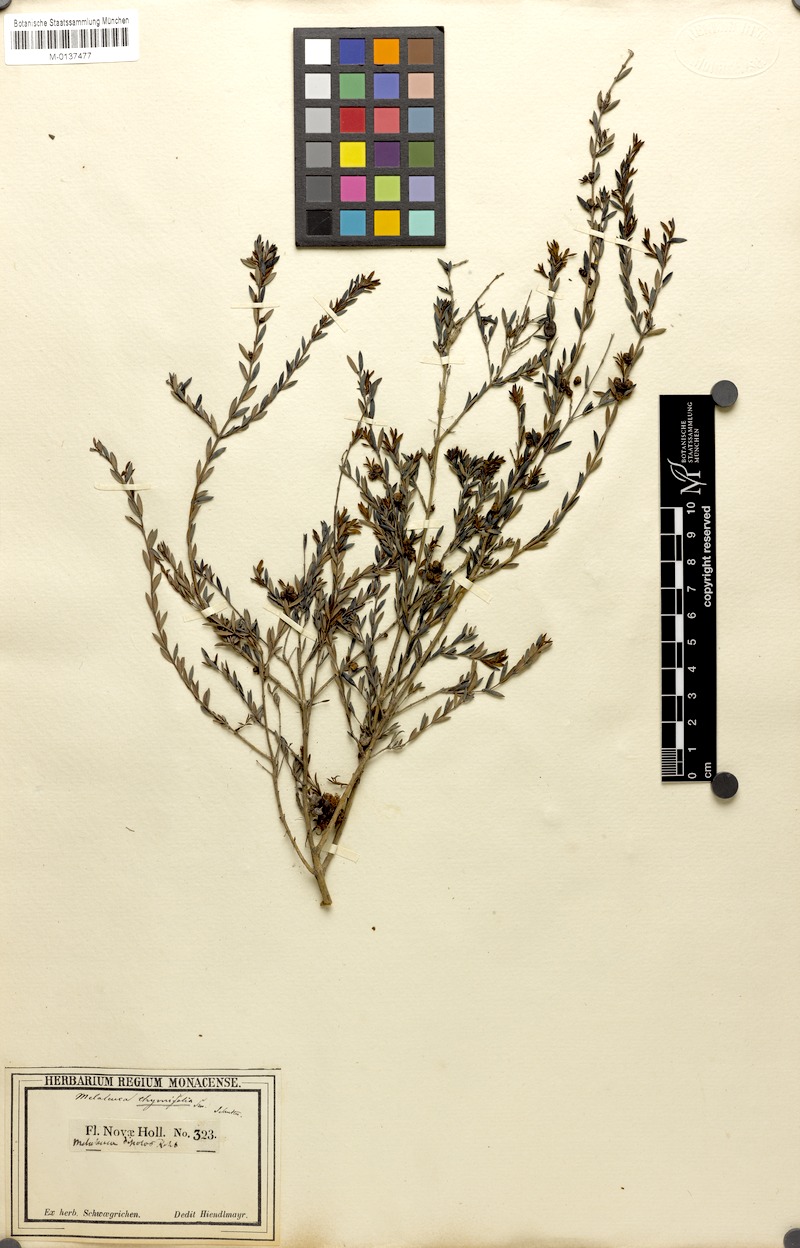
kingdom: Plantae
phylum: Tracheophyta
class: Magnoliopsida
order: Myrtales
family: Myrtaceae
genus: Melaleuca
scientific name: Melaleuca thymifolia
